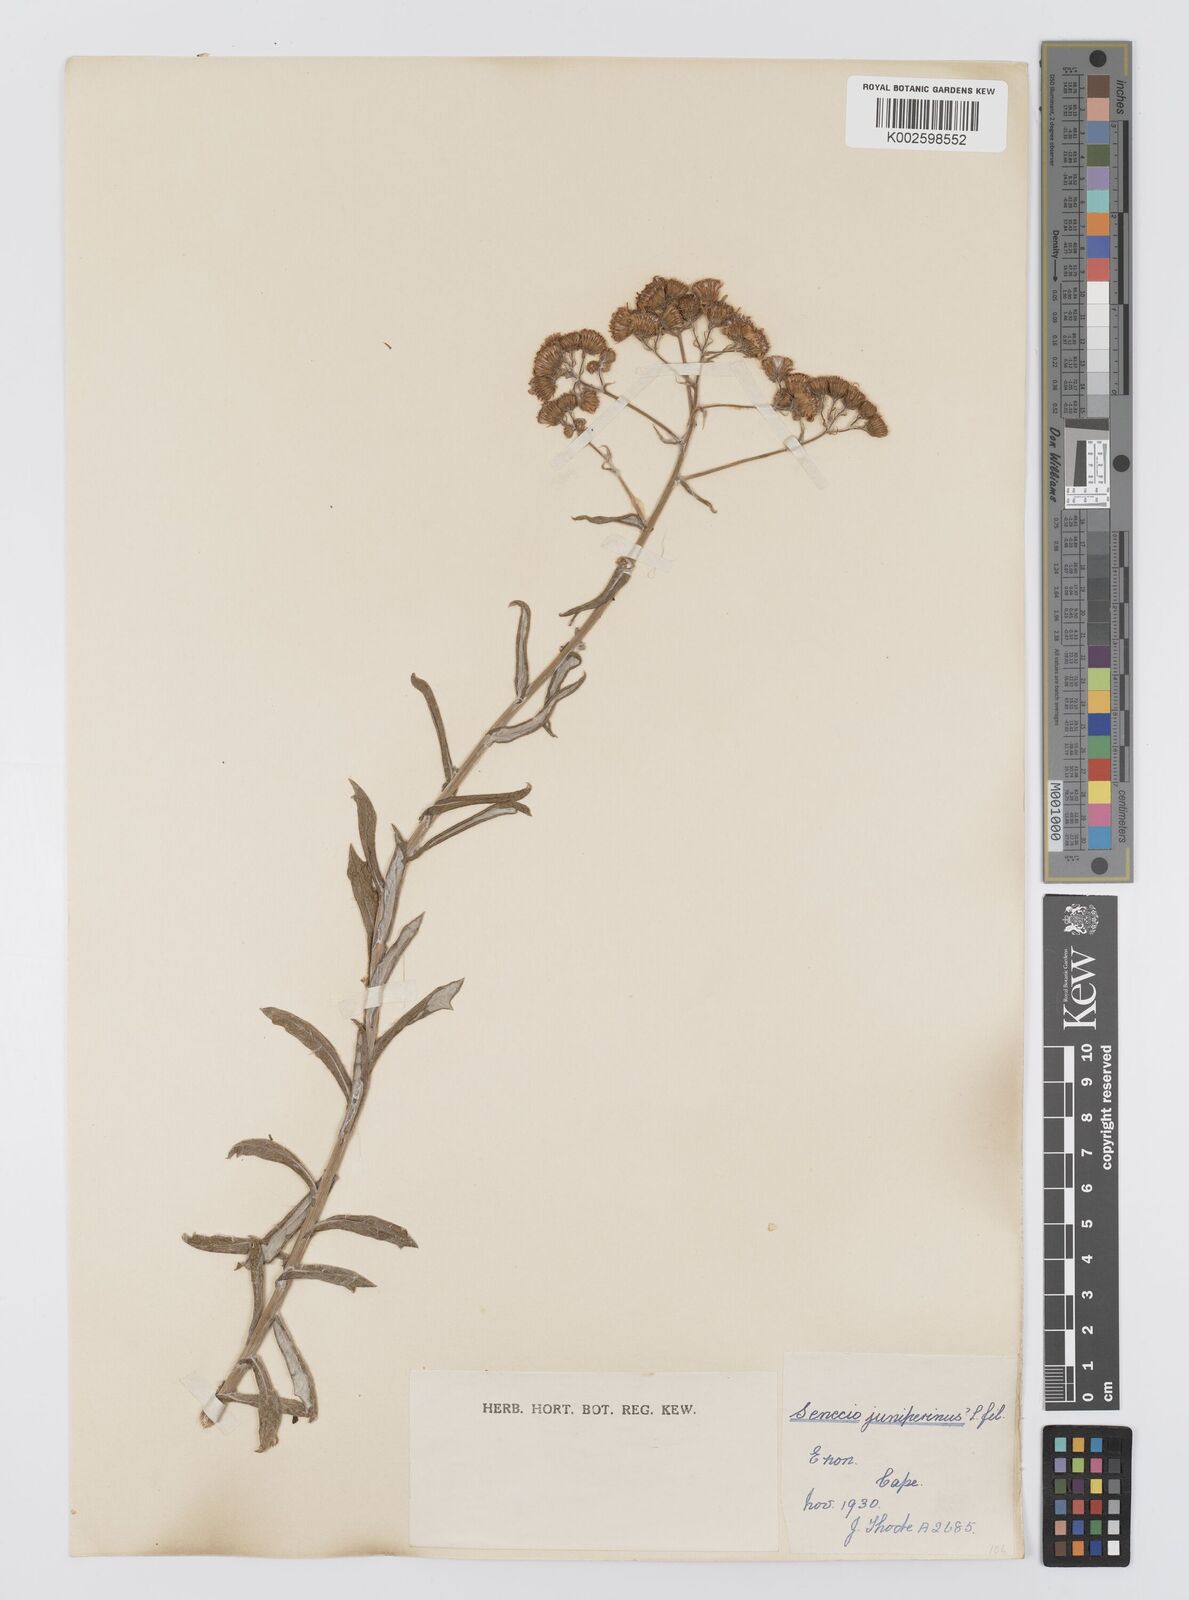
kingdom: Plantae
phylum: Tracheophyta
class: Magnoliopsida
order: Asterales
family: Asteraceae
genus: Senecio
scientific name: Senecio juniperinus
